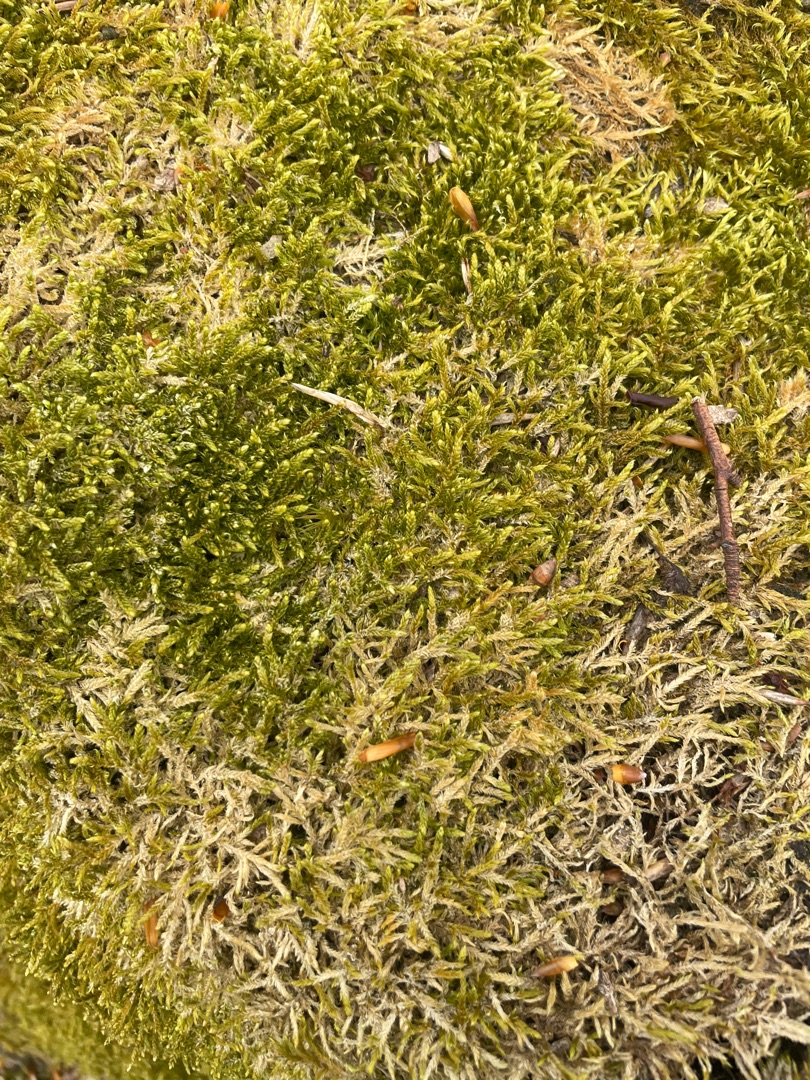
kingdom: Plantae
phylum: Bryophyta
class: Bryopsida
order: Hypnales
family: Hypnaceae
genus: Hypnum
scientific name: Hypnum cupressiforme
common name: Almindelig cypresmos
